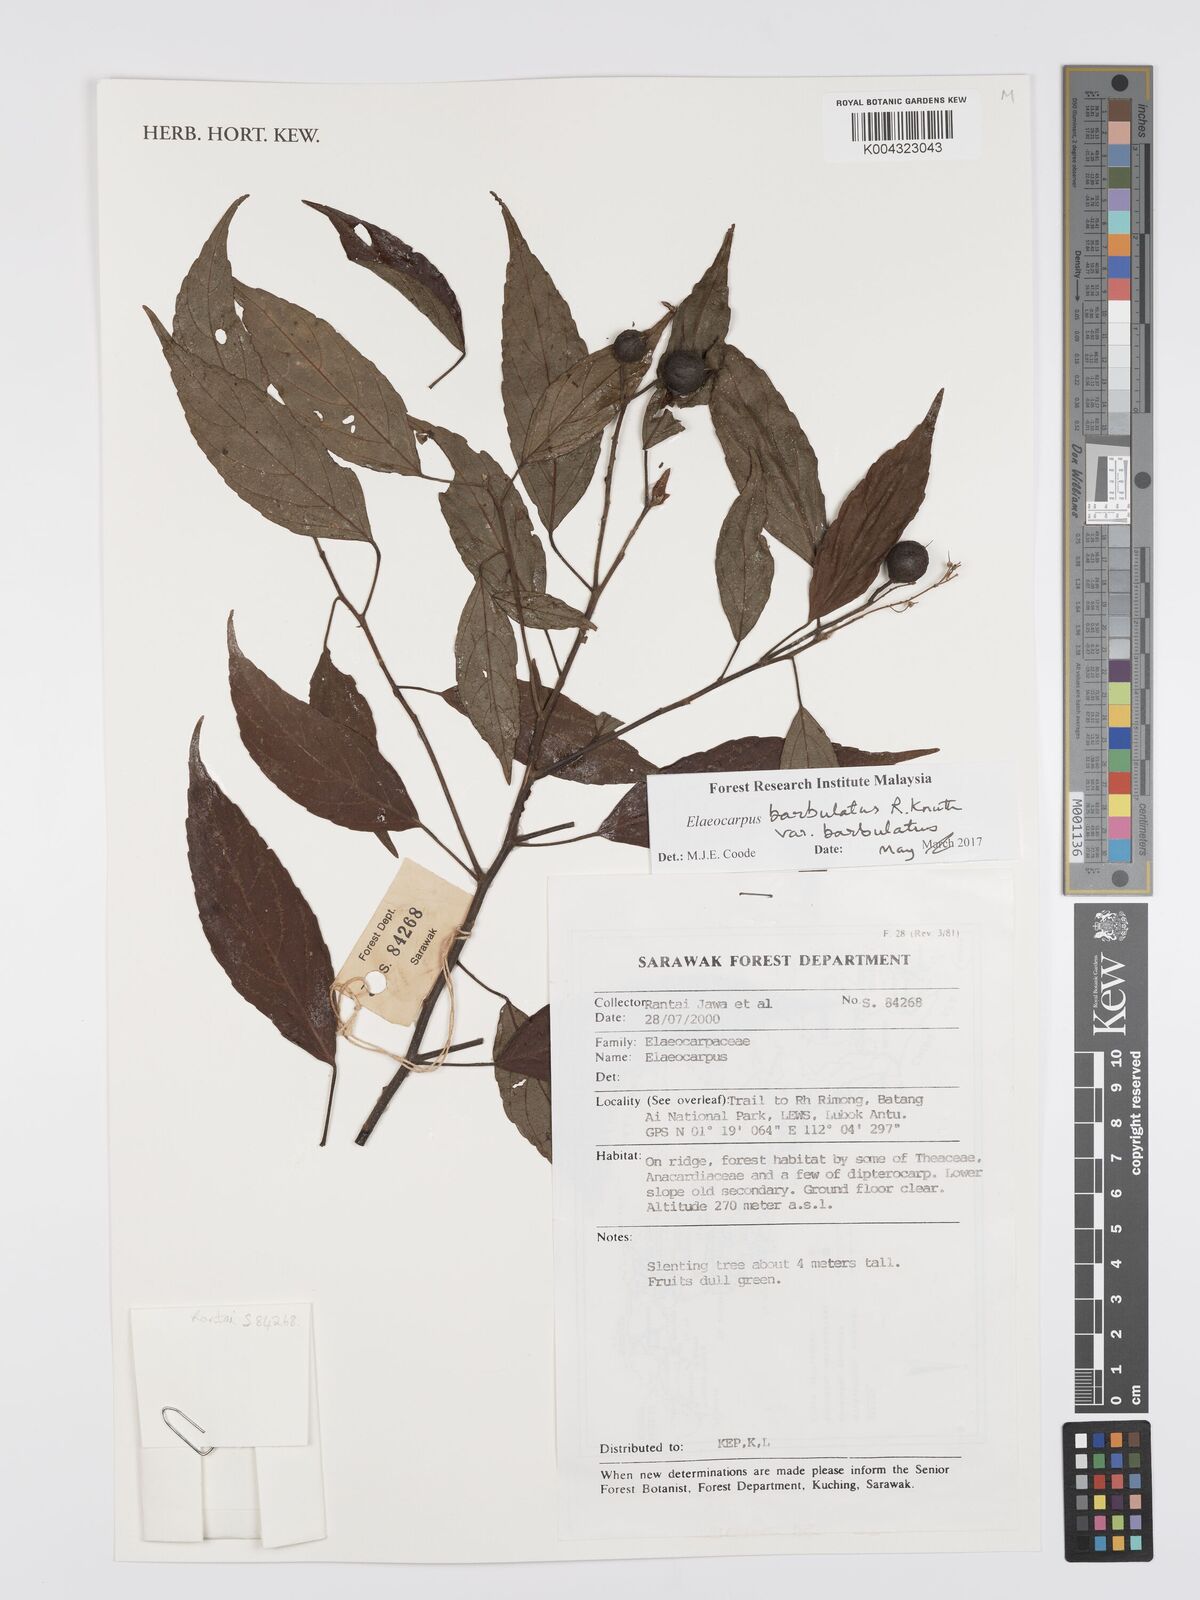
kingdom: Plantae
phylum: Tracheophyta
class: Magnoliopsida
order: Oxalidales
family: Elaeocarpaceae
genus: Elaeocarpus
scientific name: Elaeocarpus barbulatus
